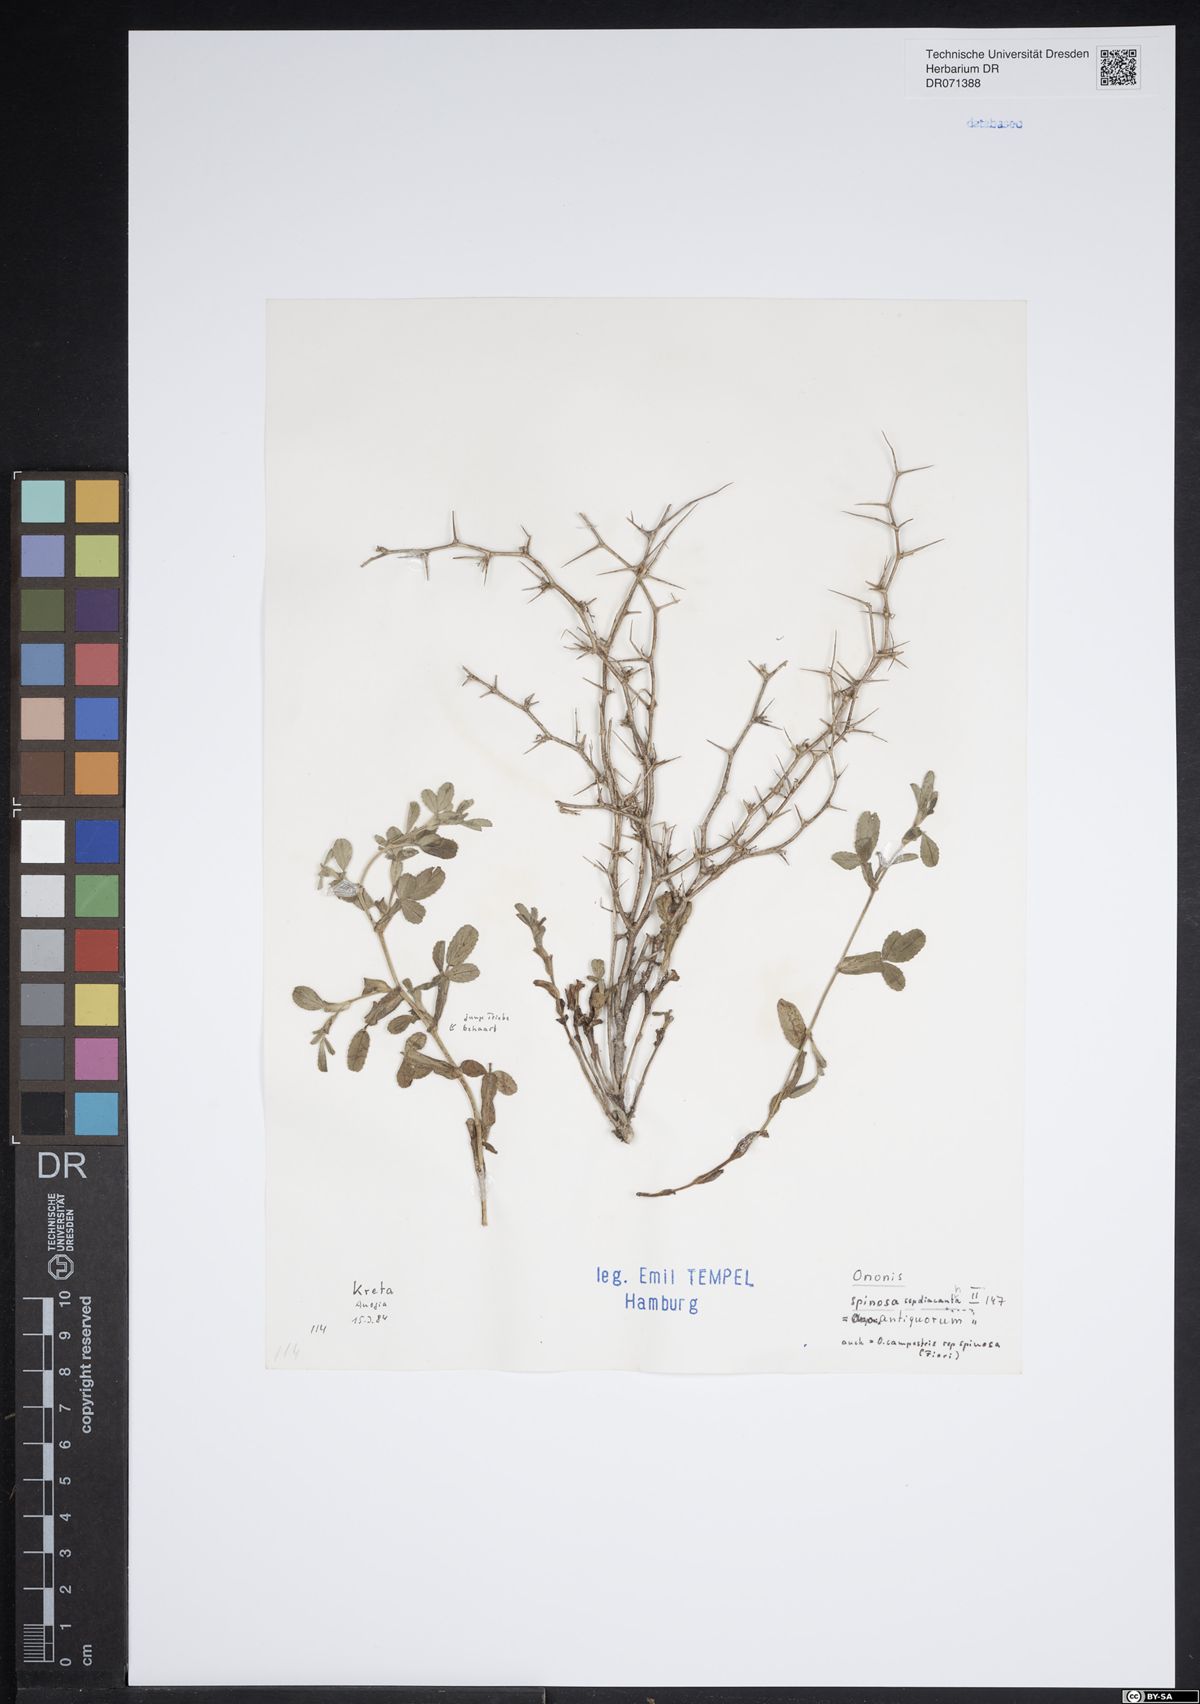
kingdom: Plantae
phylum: Tracheophyta
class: Magnoliopsida
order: Fabales
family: Fabaceae
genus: Ononis
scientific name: Ononis spinosa
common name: Spiny restharrow
